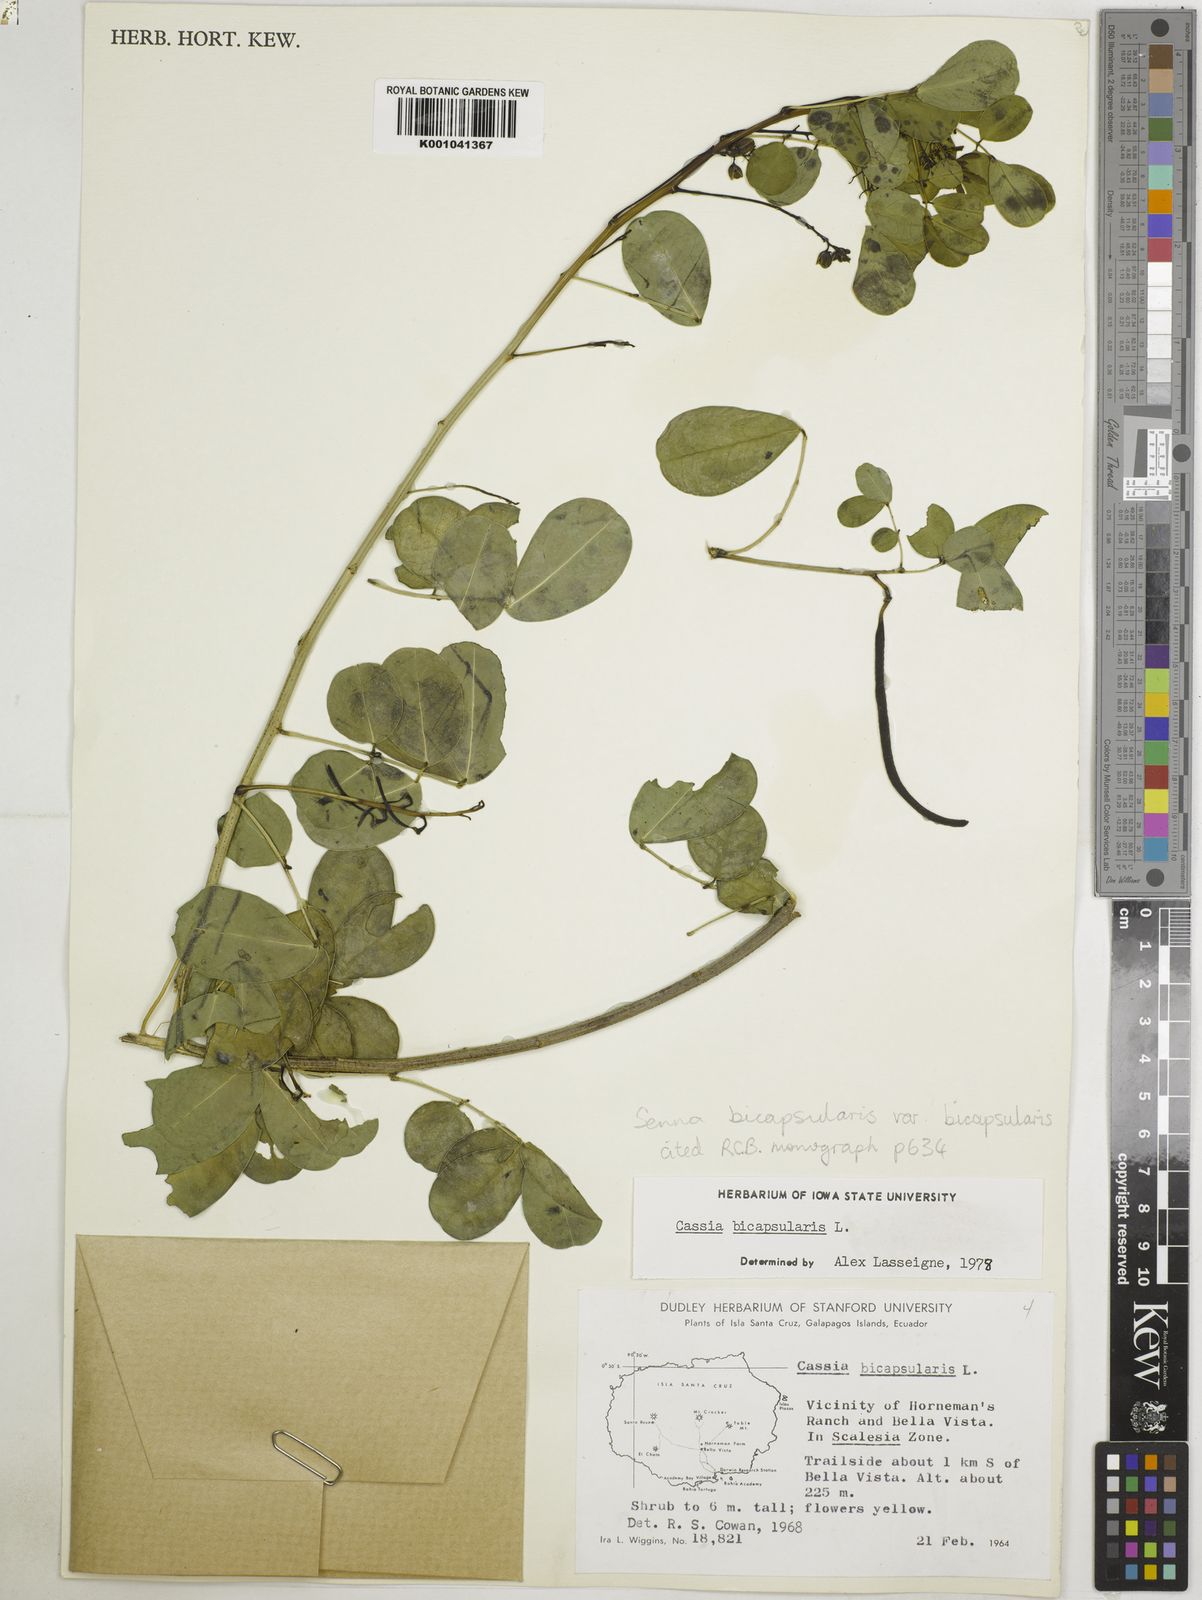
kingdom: Plantae
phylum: Tracheophyta
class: Magnoliopsida
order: Fabales
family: Fabaceae
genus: Senna
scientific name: Senna bicapsularis
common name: Christmasbush
